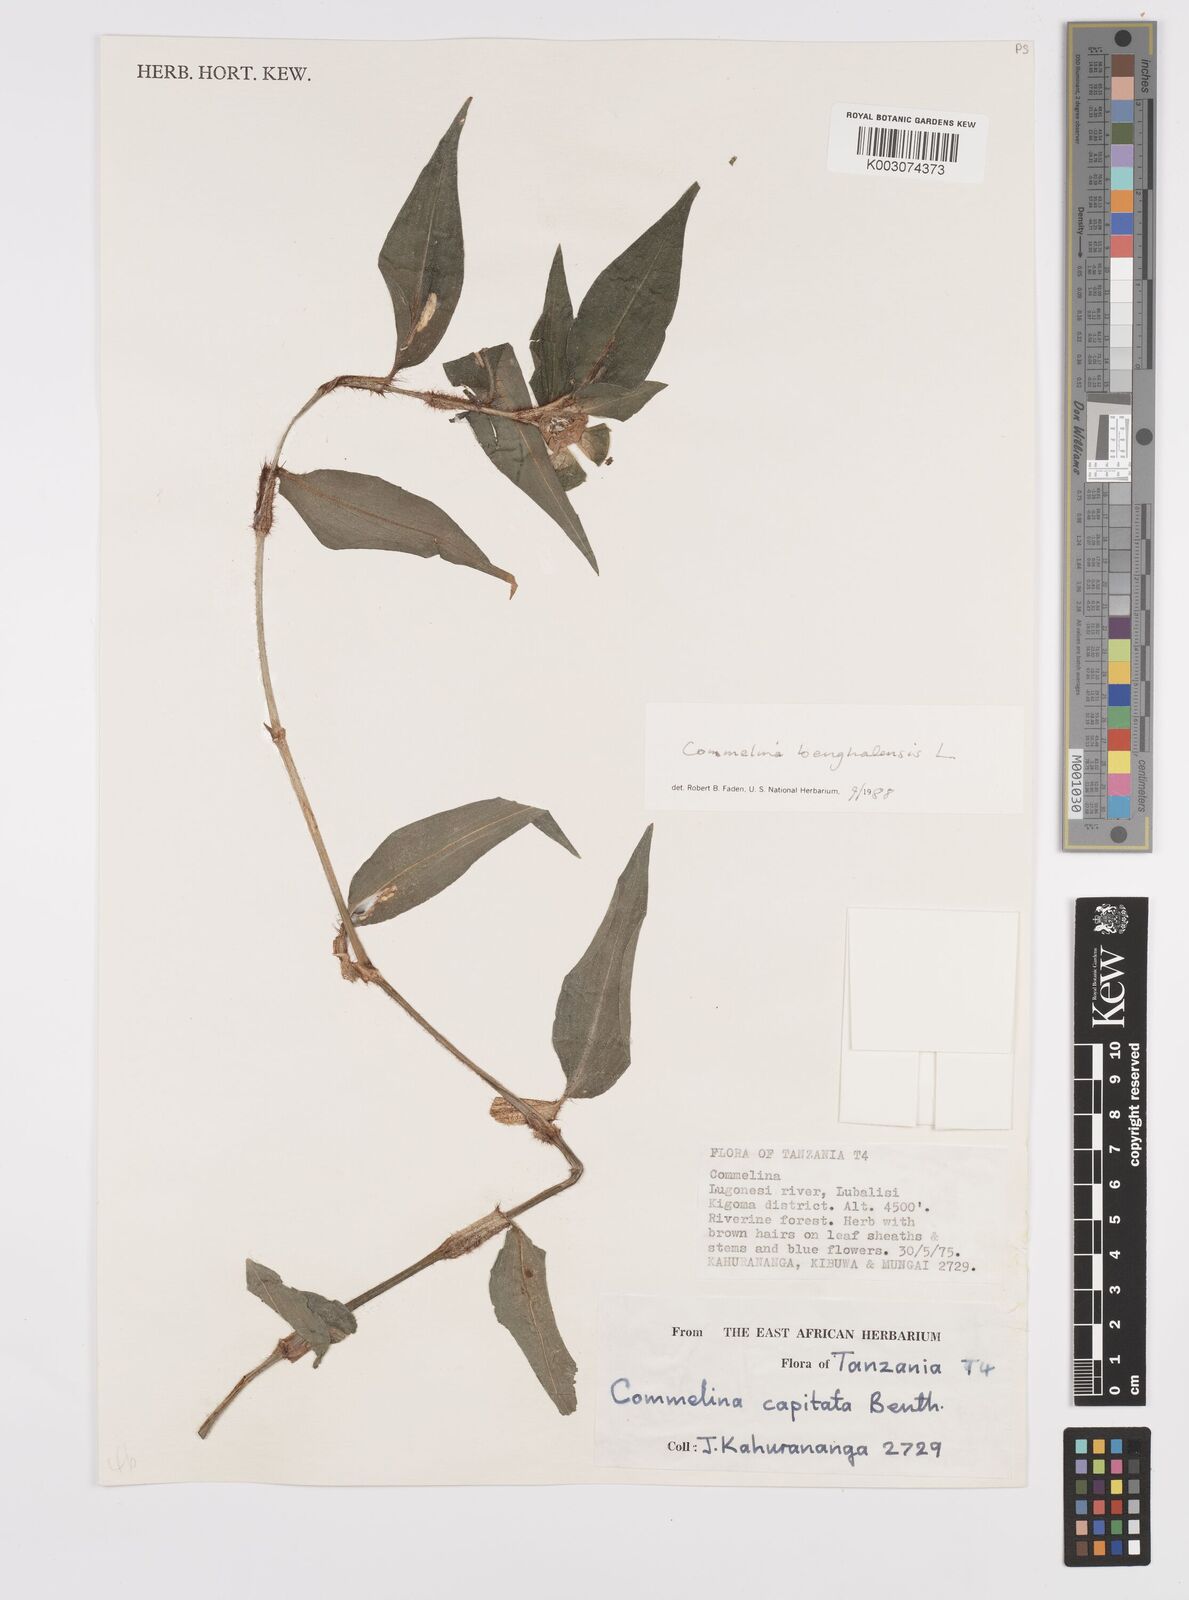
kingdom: Plantae
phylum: Tracheophyta
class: Liliopsida
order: Commelinales
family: Commelinaceae
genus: Commelina
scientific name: Commelina benghalensis
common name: Jio
